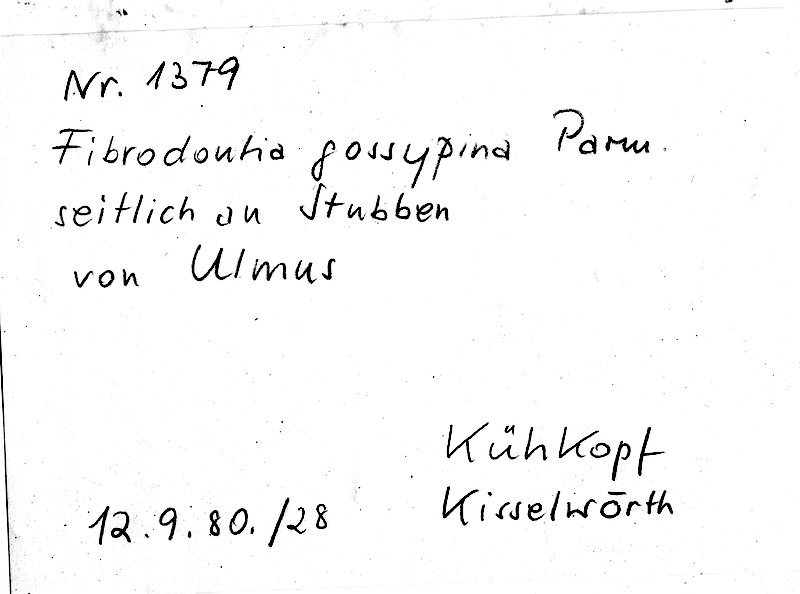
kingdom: Plantae
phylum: Tracheophyta
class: Magnoliopsida
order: Rosales
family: Ulmaceae
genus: Ulmus
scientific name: Ulmus
